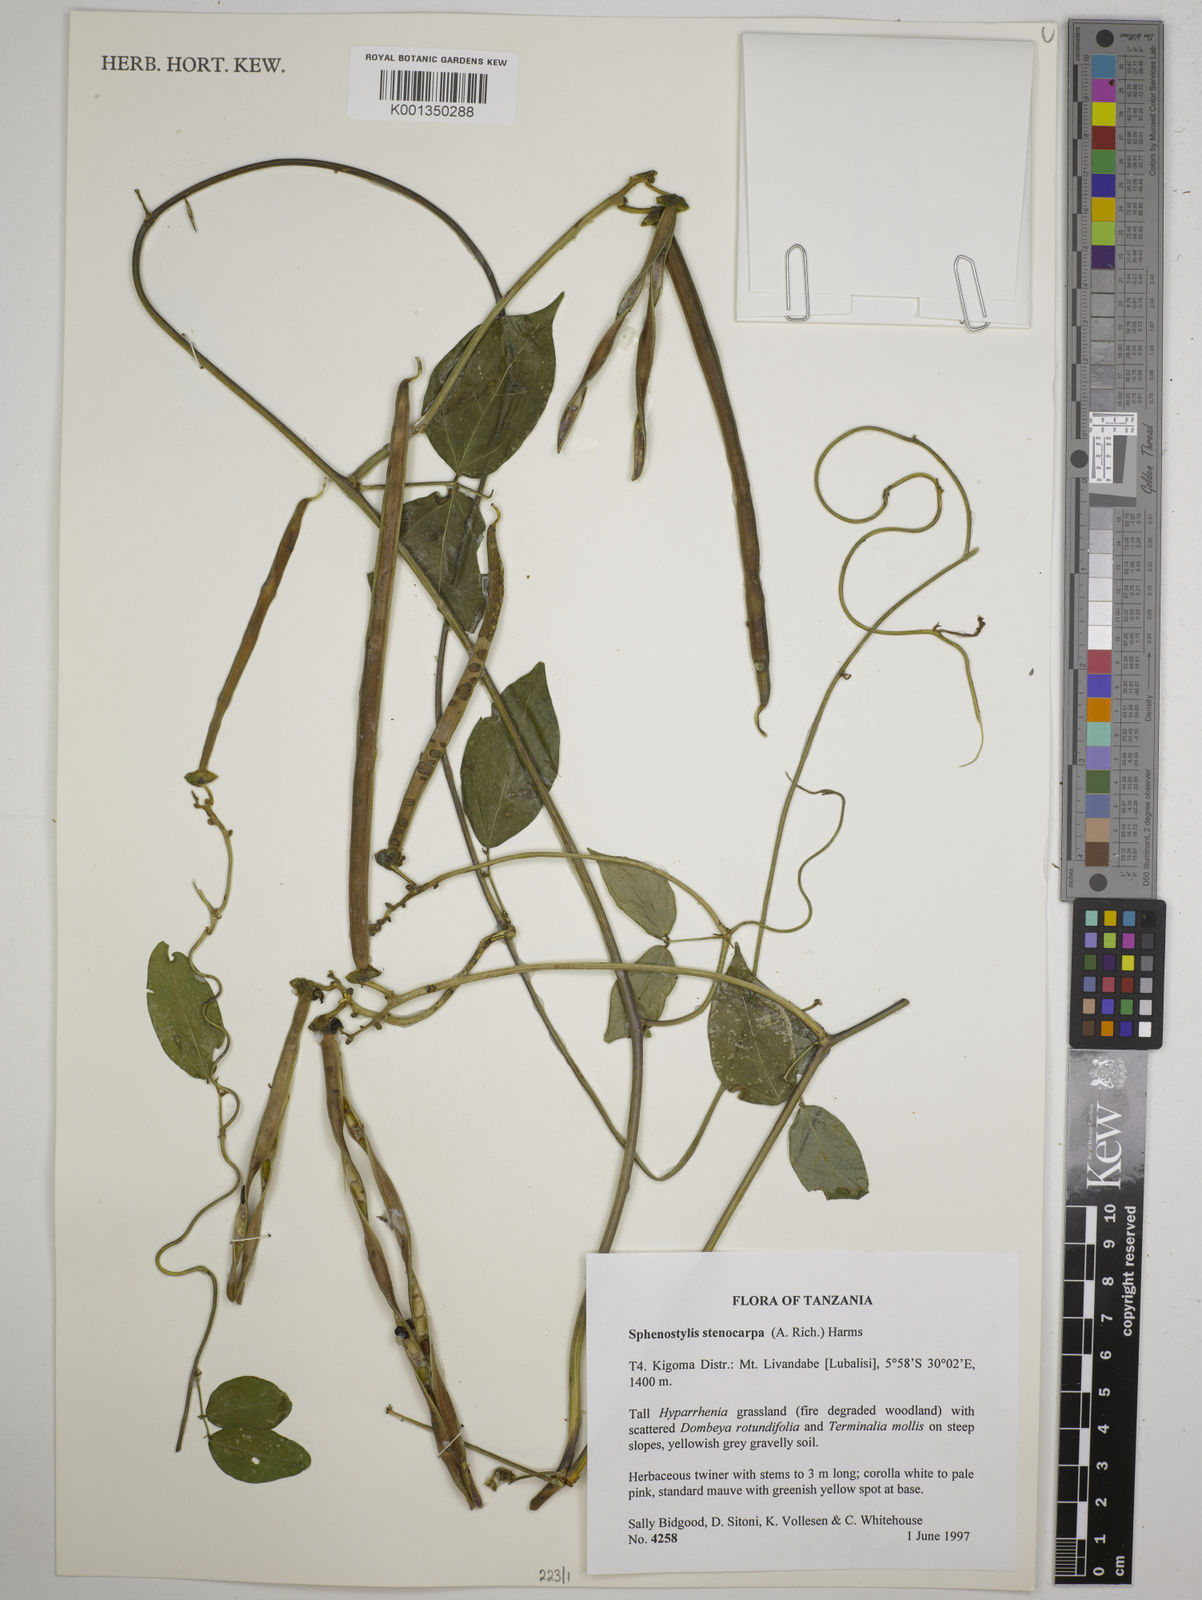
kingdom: Plantae
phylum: Tracheophyta
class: Magnoliopsida
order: Fabales
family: Fabaceae
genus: Sphenostylis
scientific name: Sphenostylis stenocarpa
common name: Yam-pea
